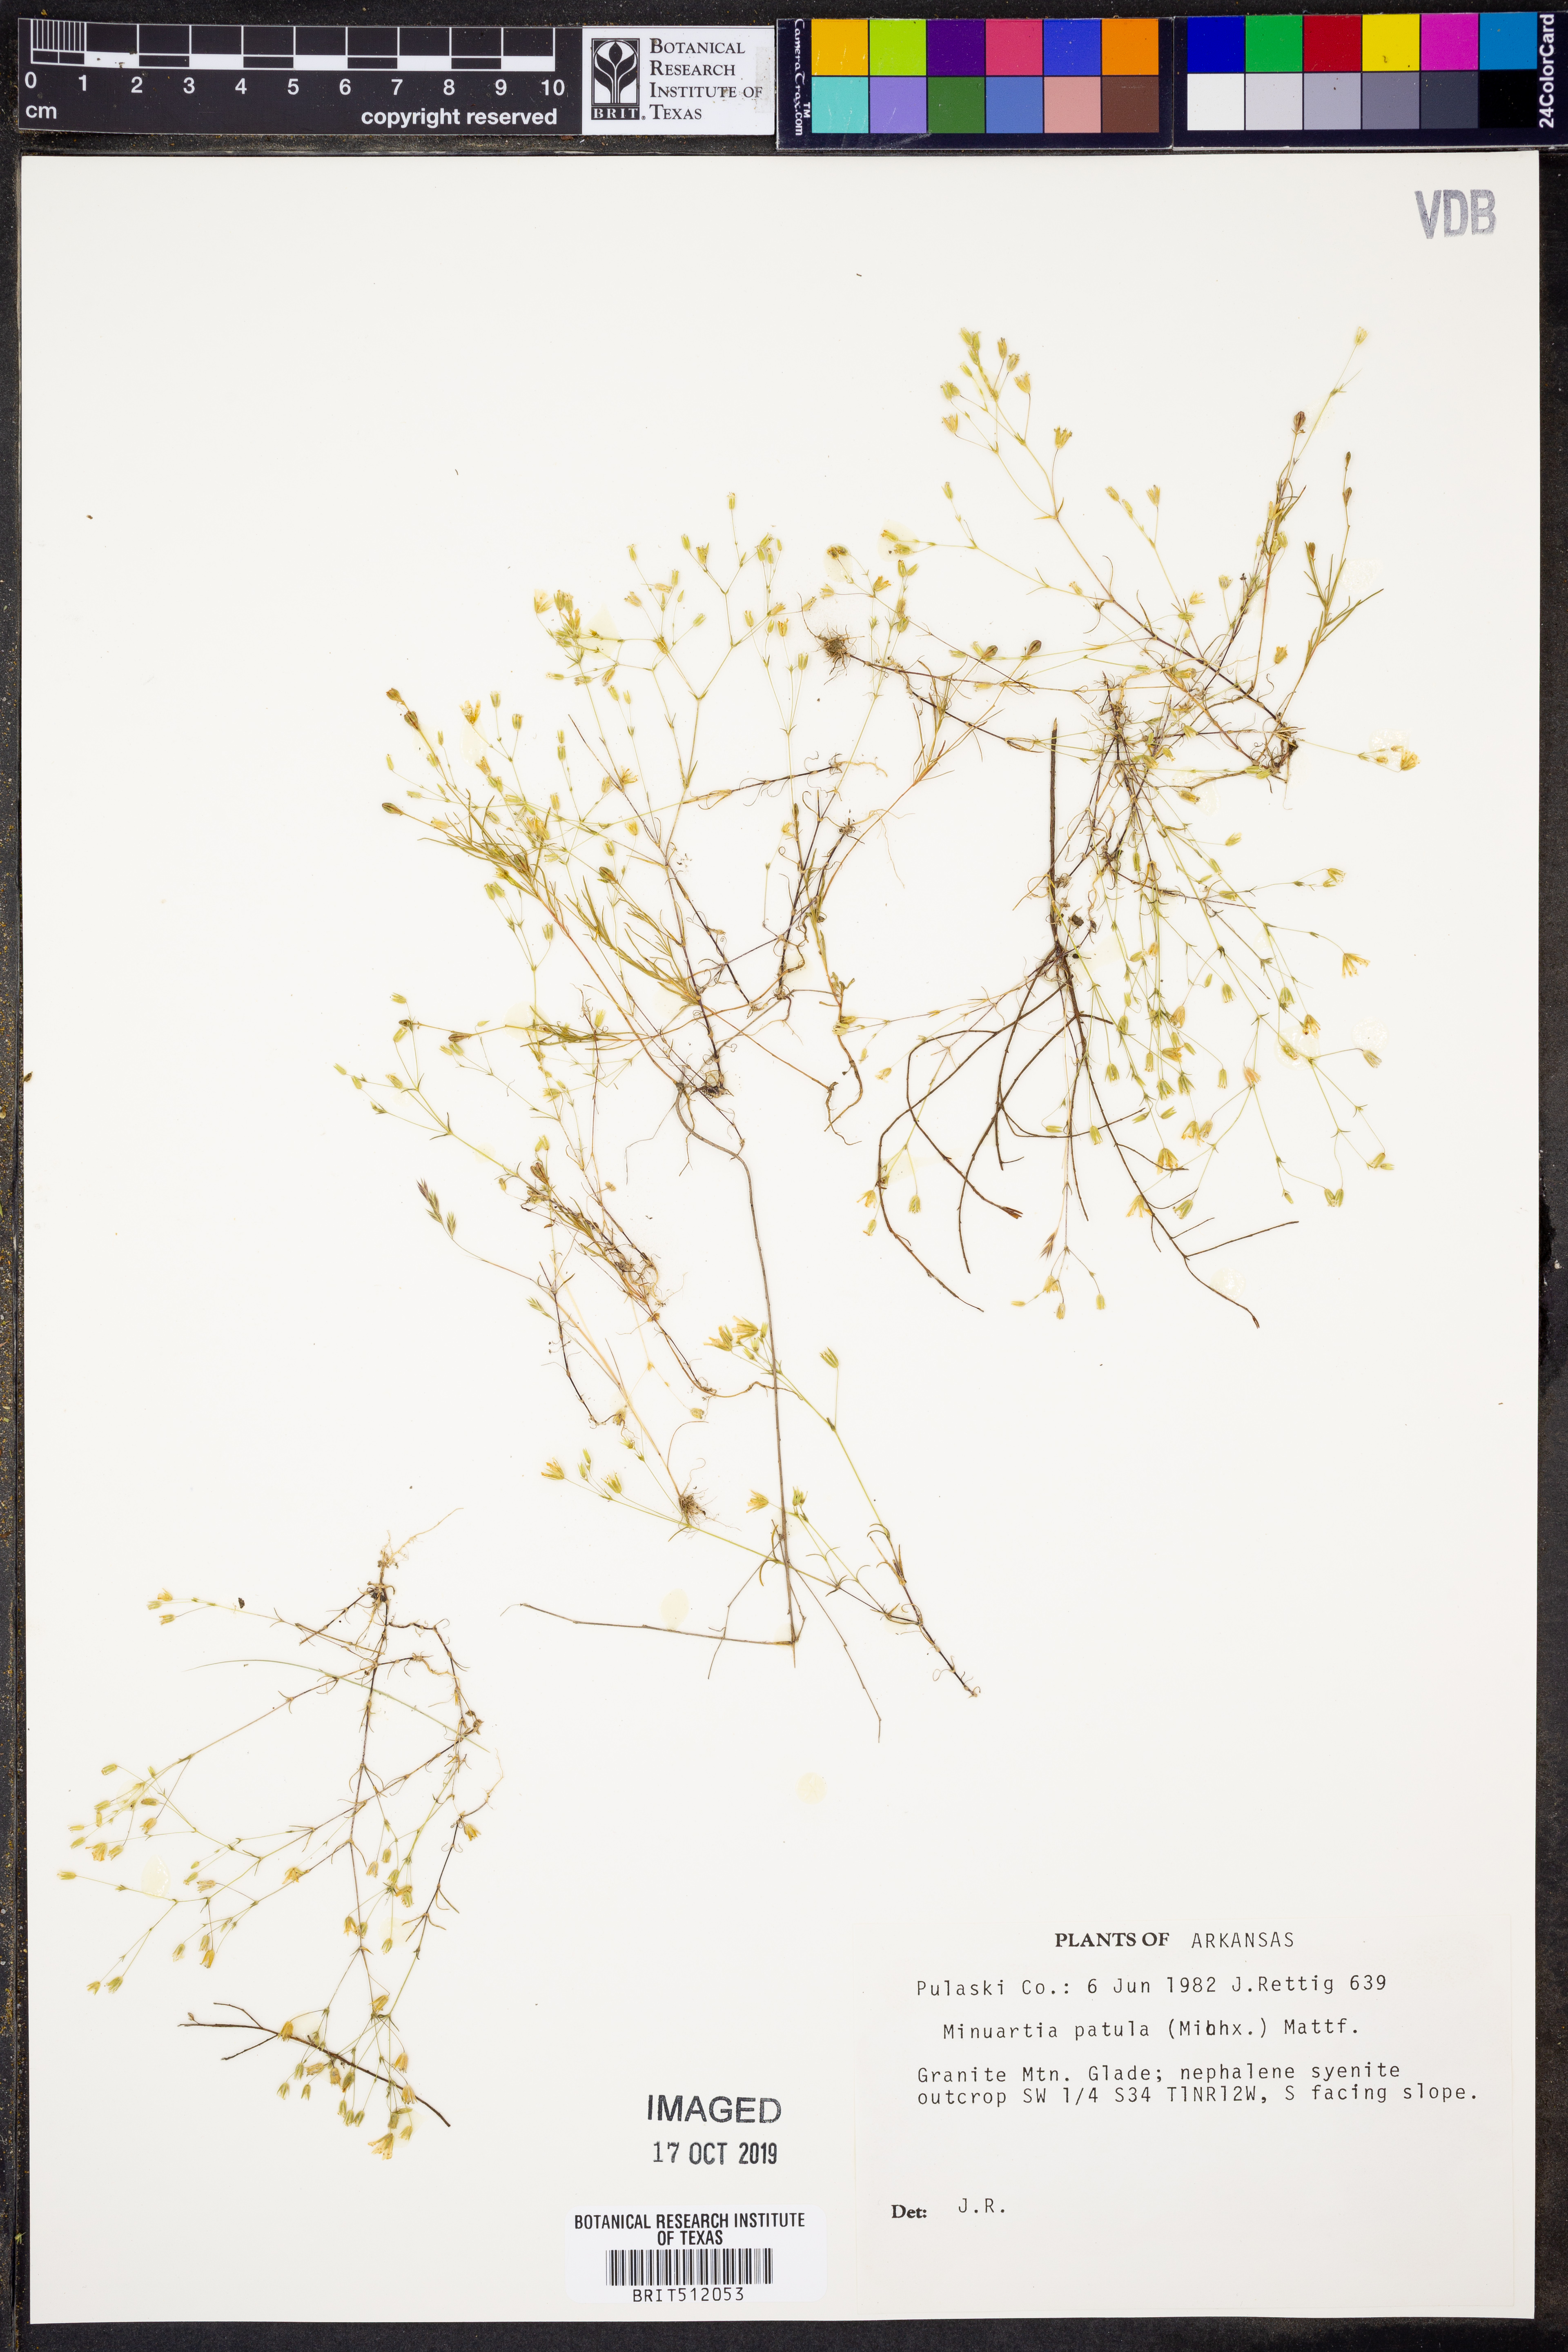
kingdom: Plantae
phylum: Tracheophyta
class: Magnoliopsida
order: Caryophyllales
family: Caryophyllaceae
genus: Mononeuria
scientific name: Mononeuria patula
